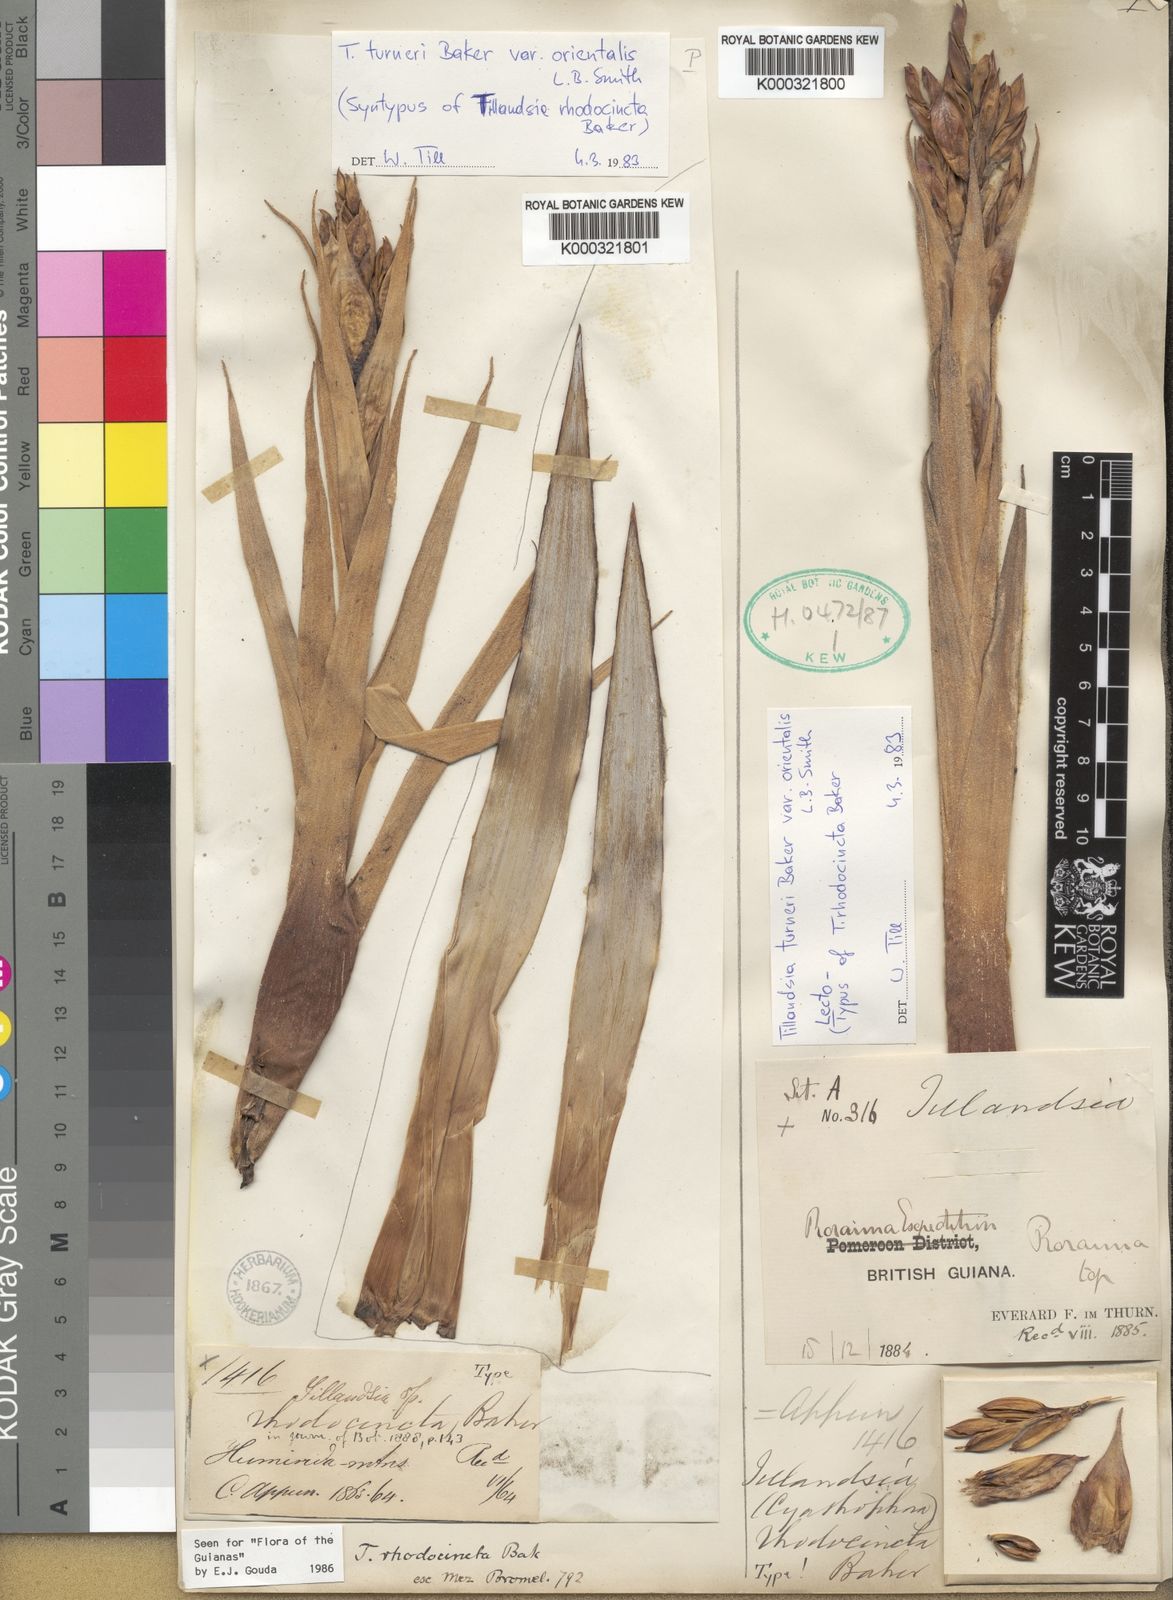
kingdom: Plantae
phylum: Tracheophyta
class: Liliopsida
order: Poales
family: Bromeliaceae
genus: Tillandsia
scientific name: Tillandsia turneri
